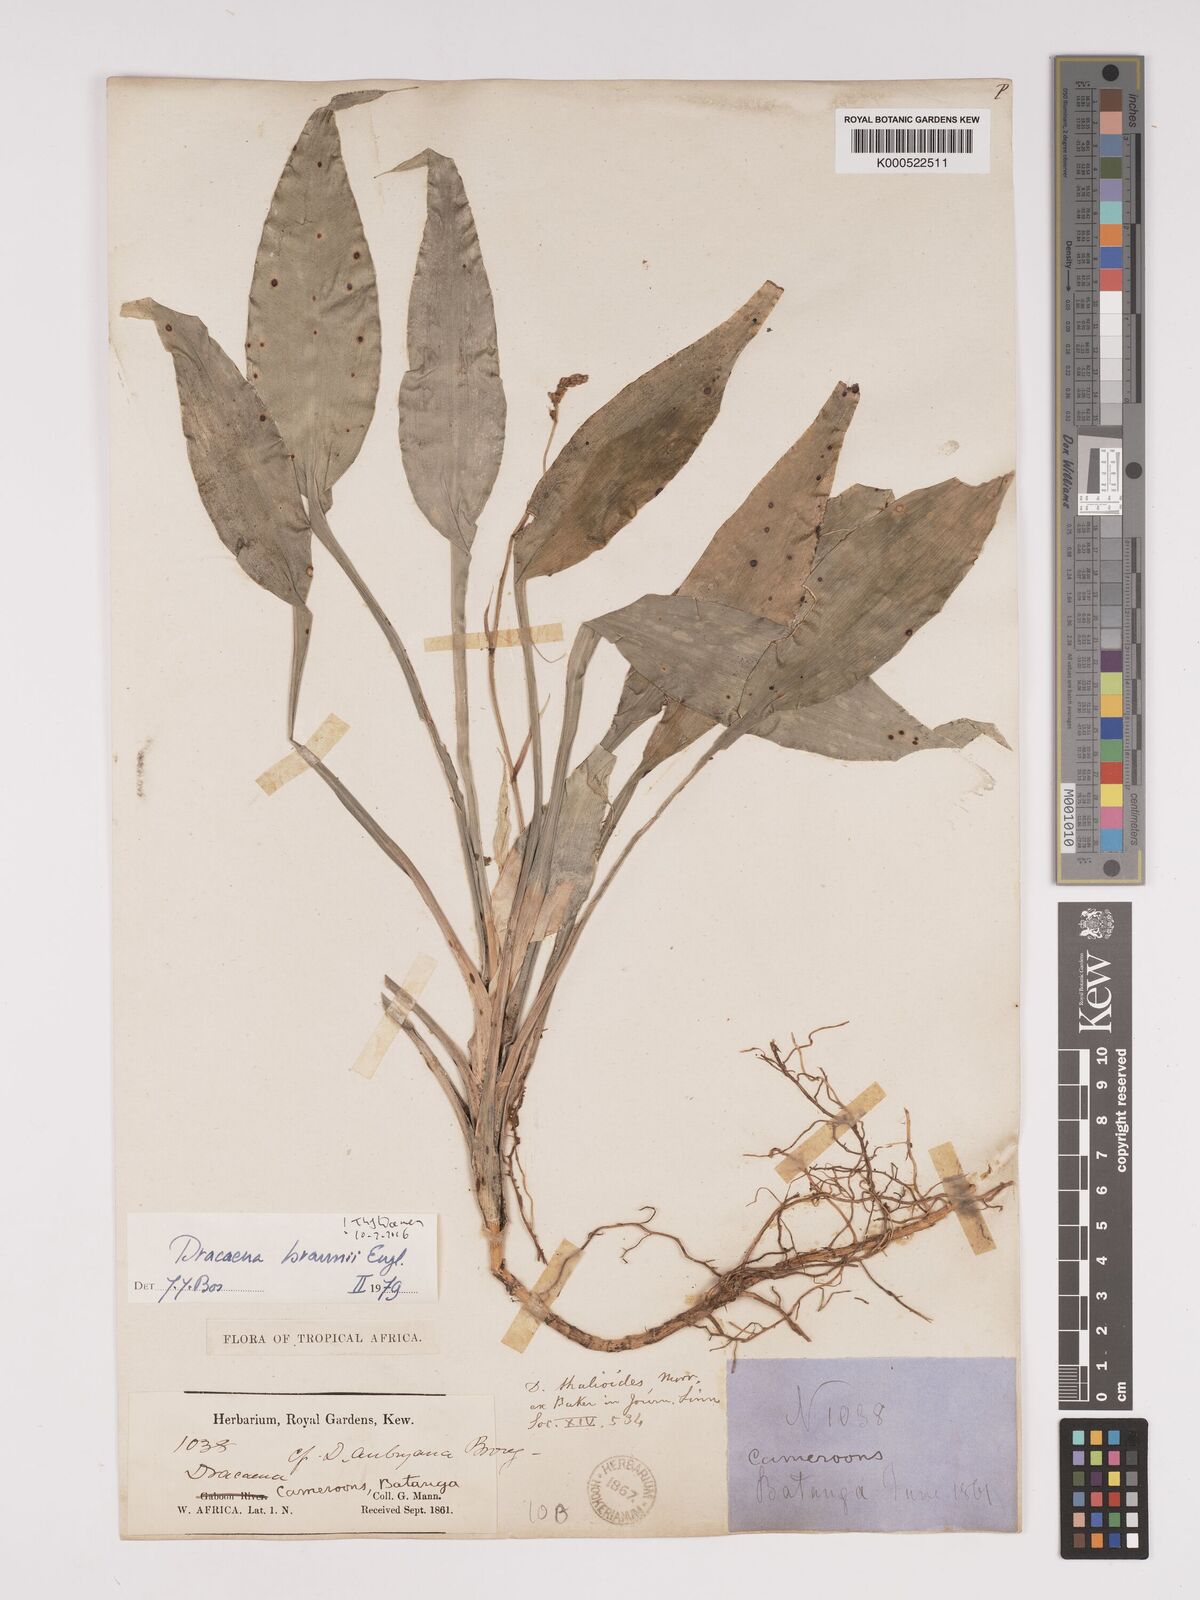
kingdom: Plantae
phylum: Tracheophyta
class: Liliopsida
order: Asparagales
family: Asparagaceae
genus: Dracaena
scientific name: Dracaena braunii
